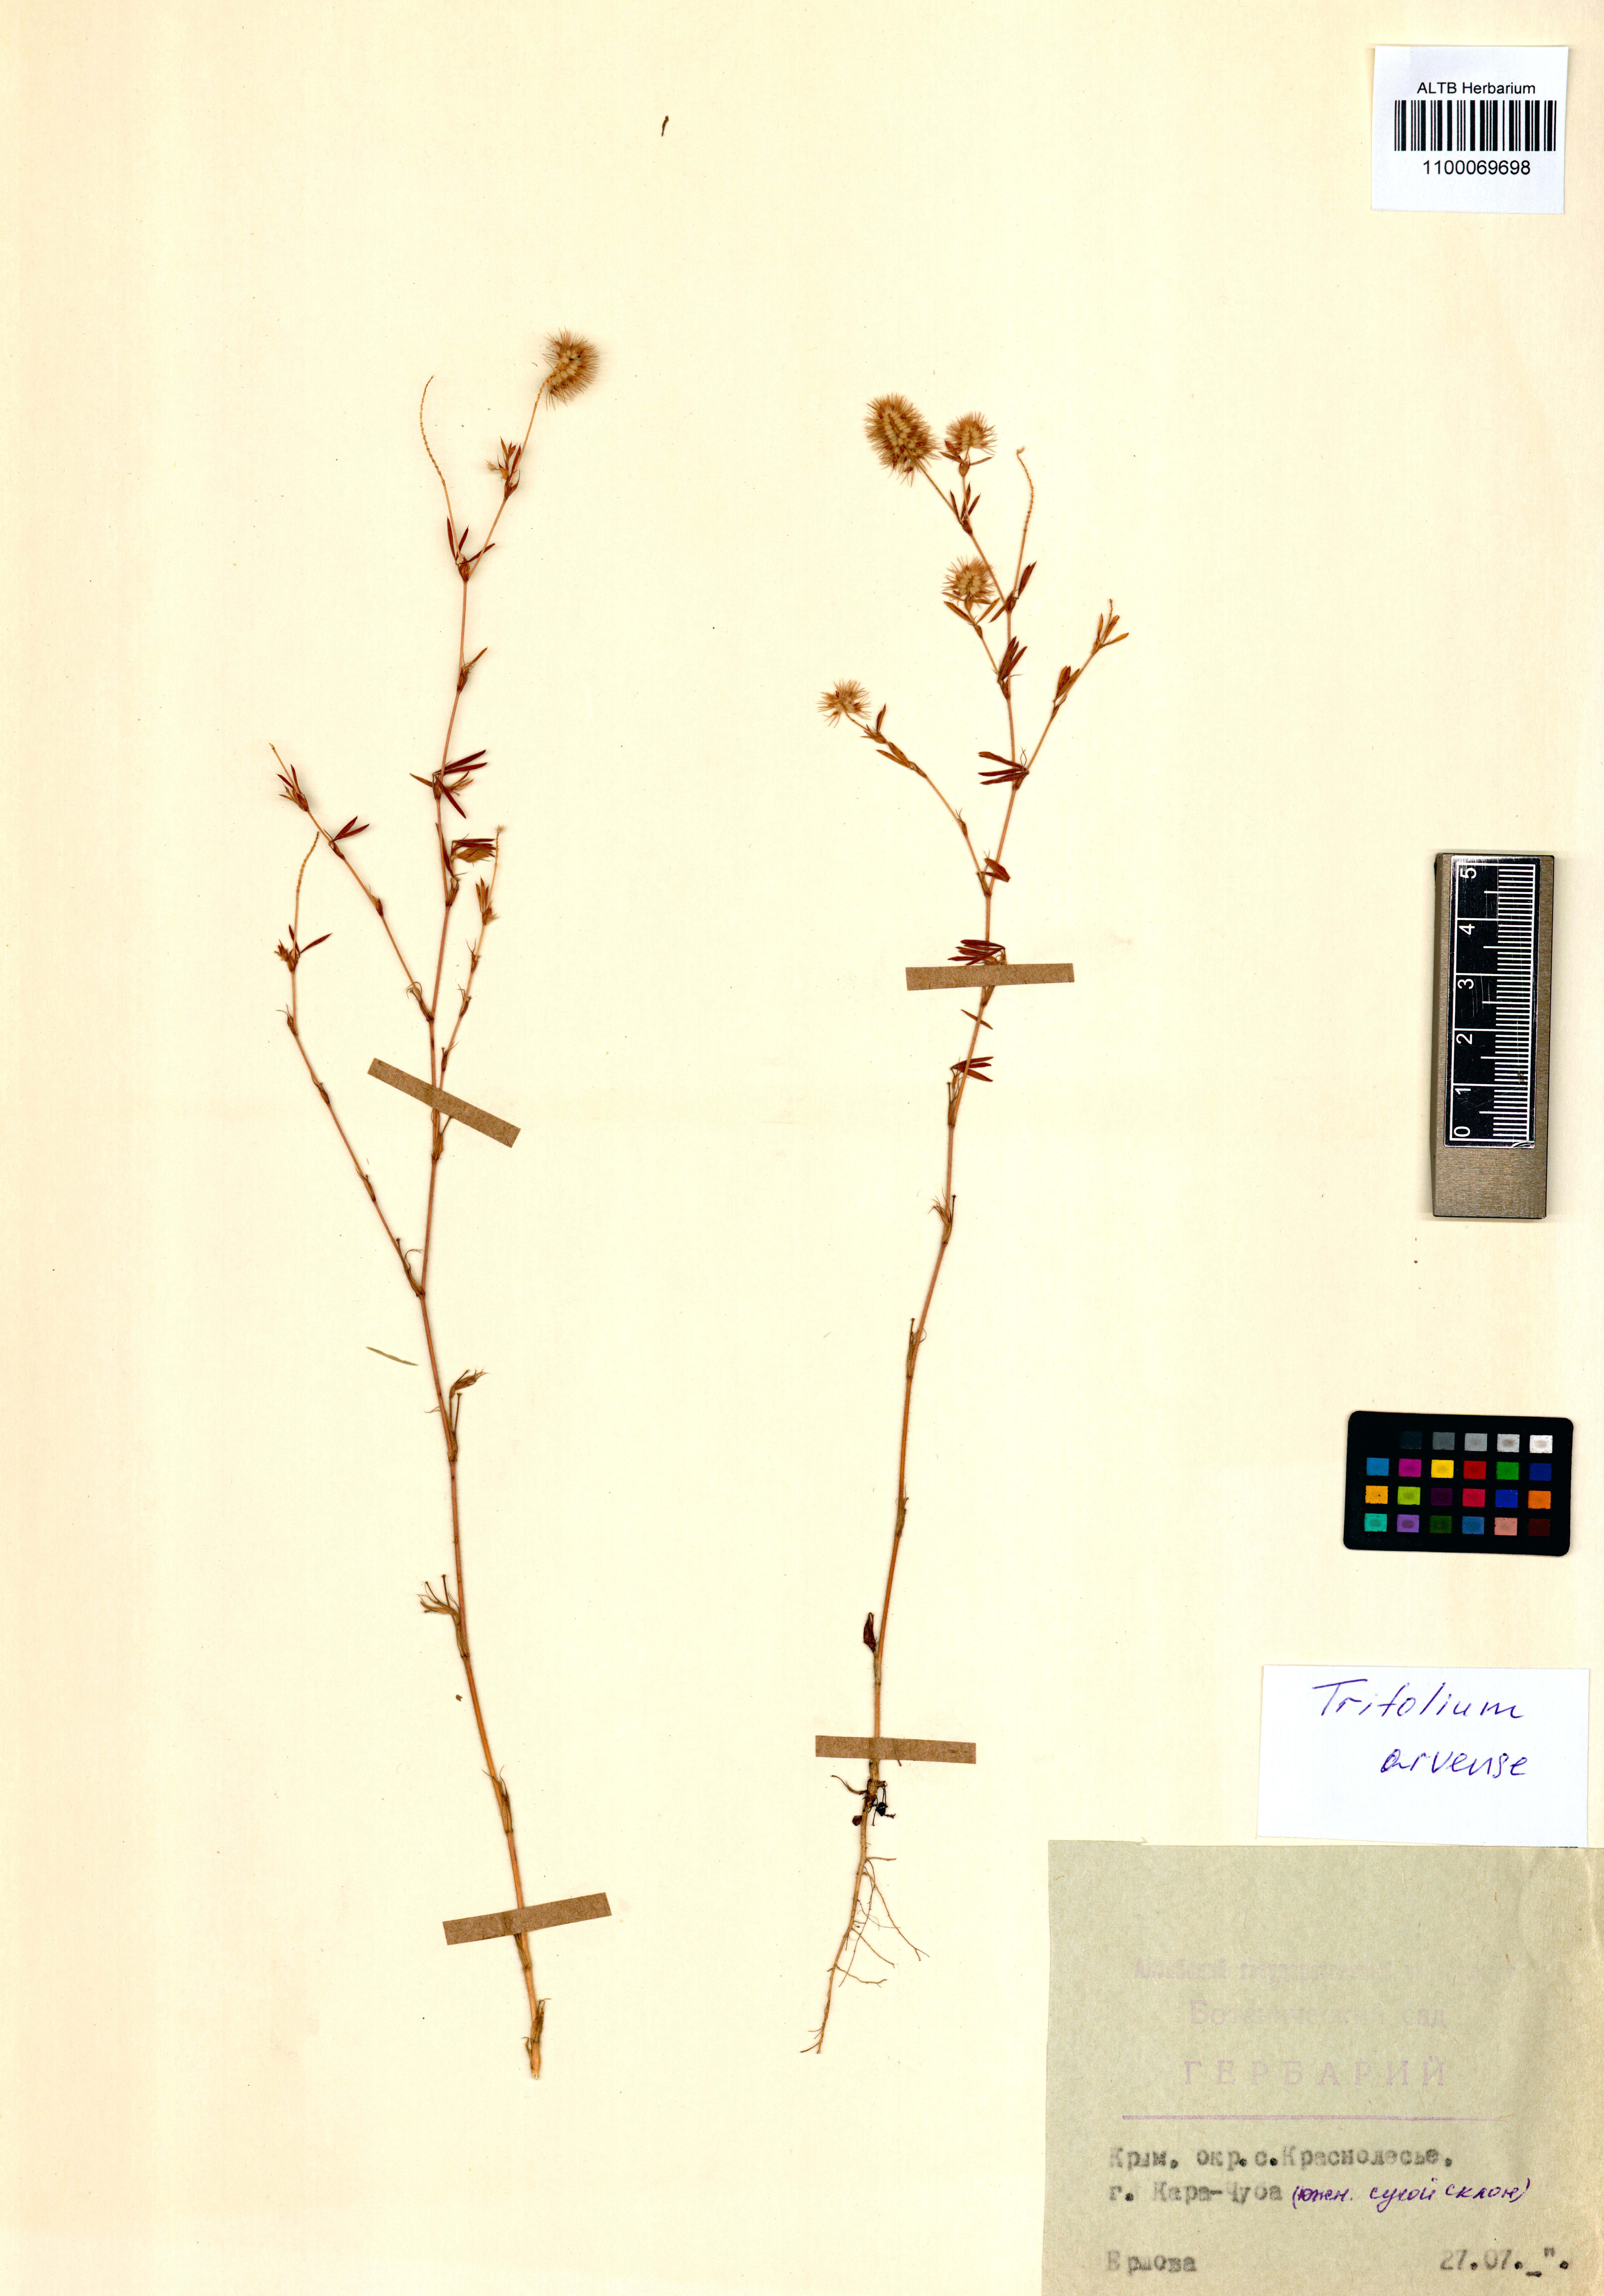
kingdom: Plantae
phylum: Tracheophyta
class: Magnoliopsida
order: Fabales
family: Fabaceae
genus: Trifolium
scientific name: Trifolium arvense
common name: Hare's-foot clover
